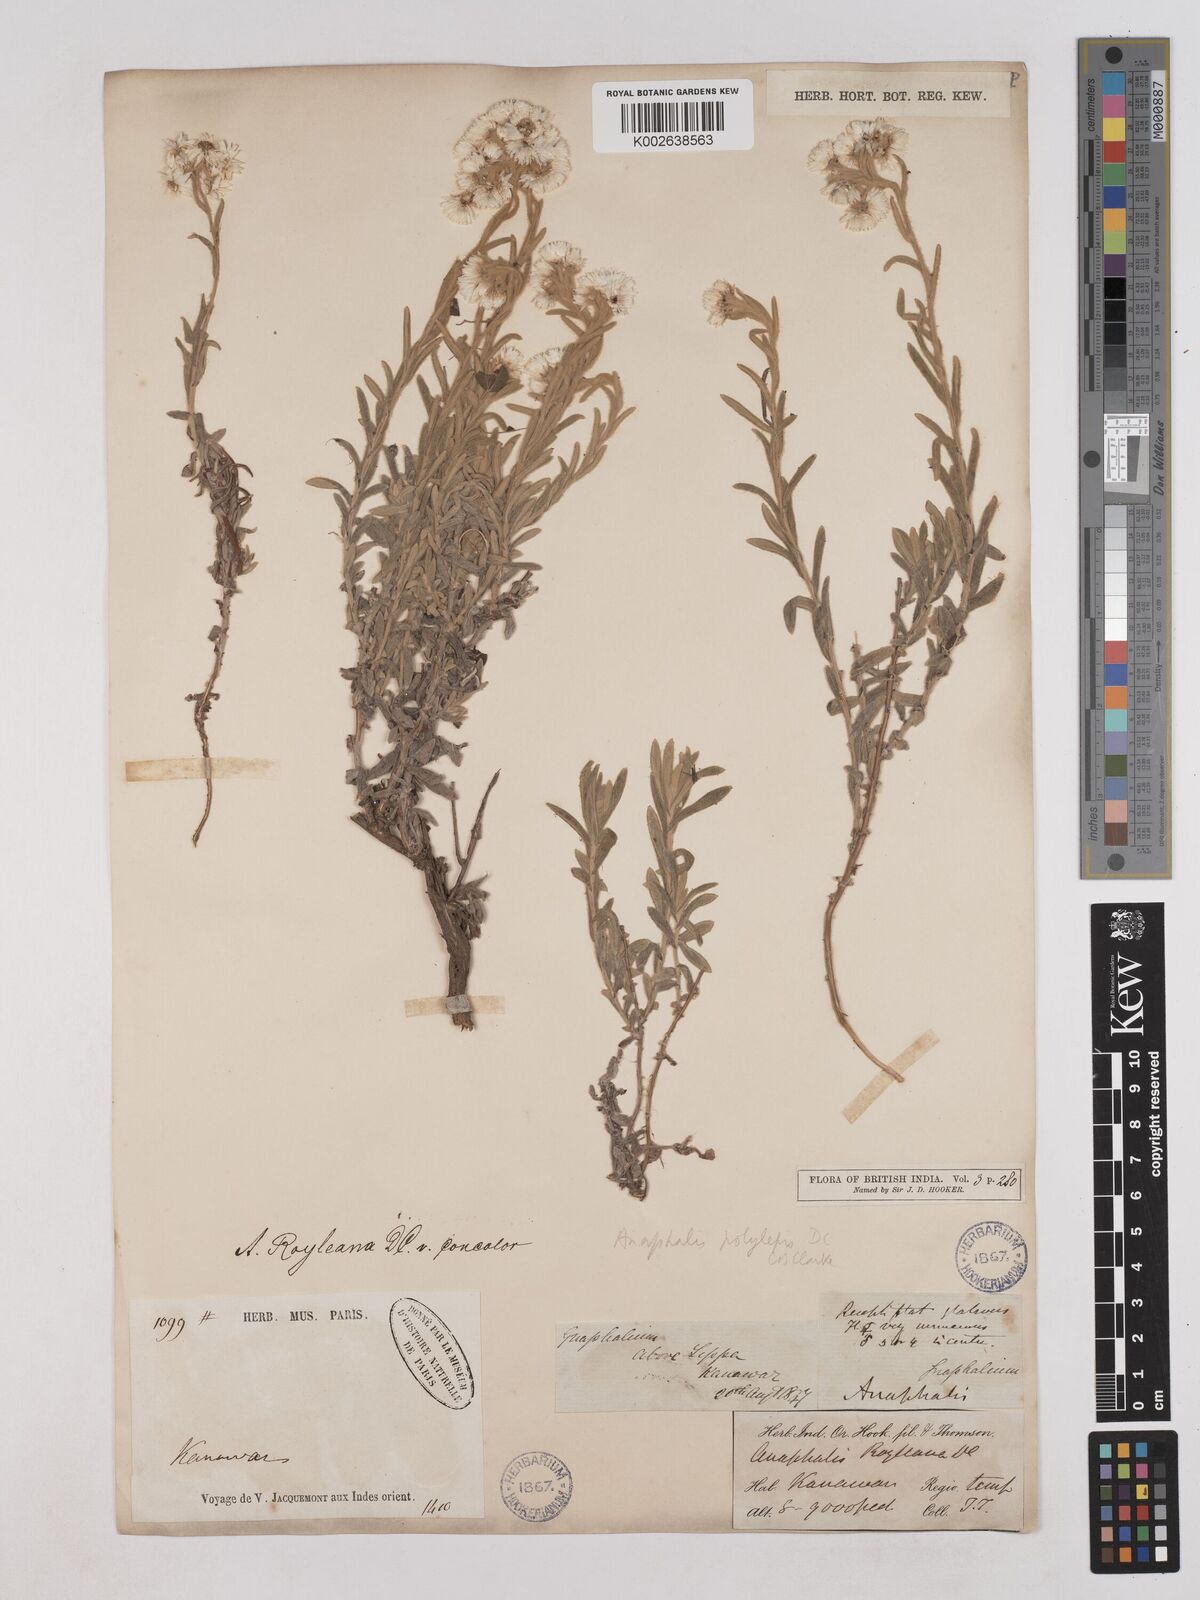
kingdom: Plantae
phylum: Tracheophyta
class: Magnoliopsida
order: Asterales
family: Asteraceae
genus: Anaphalis
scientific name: Anaphalis royleana
